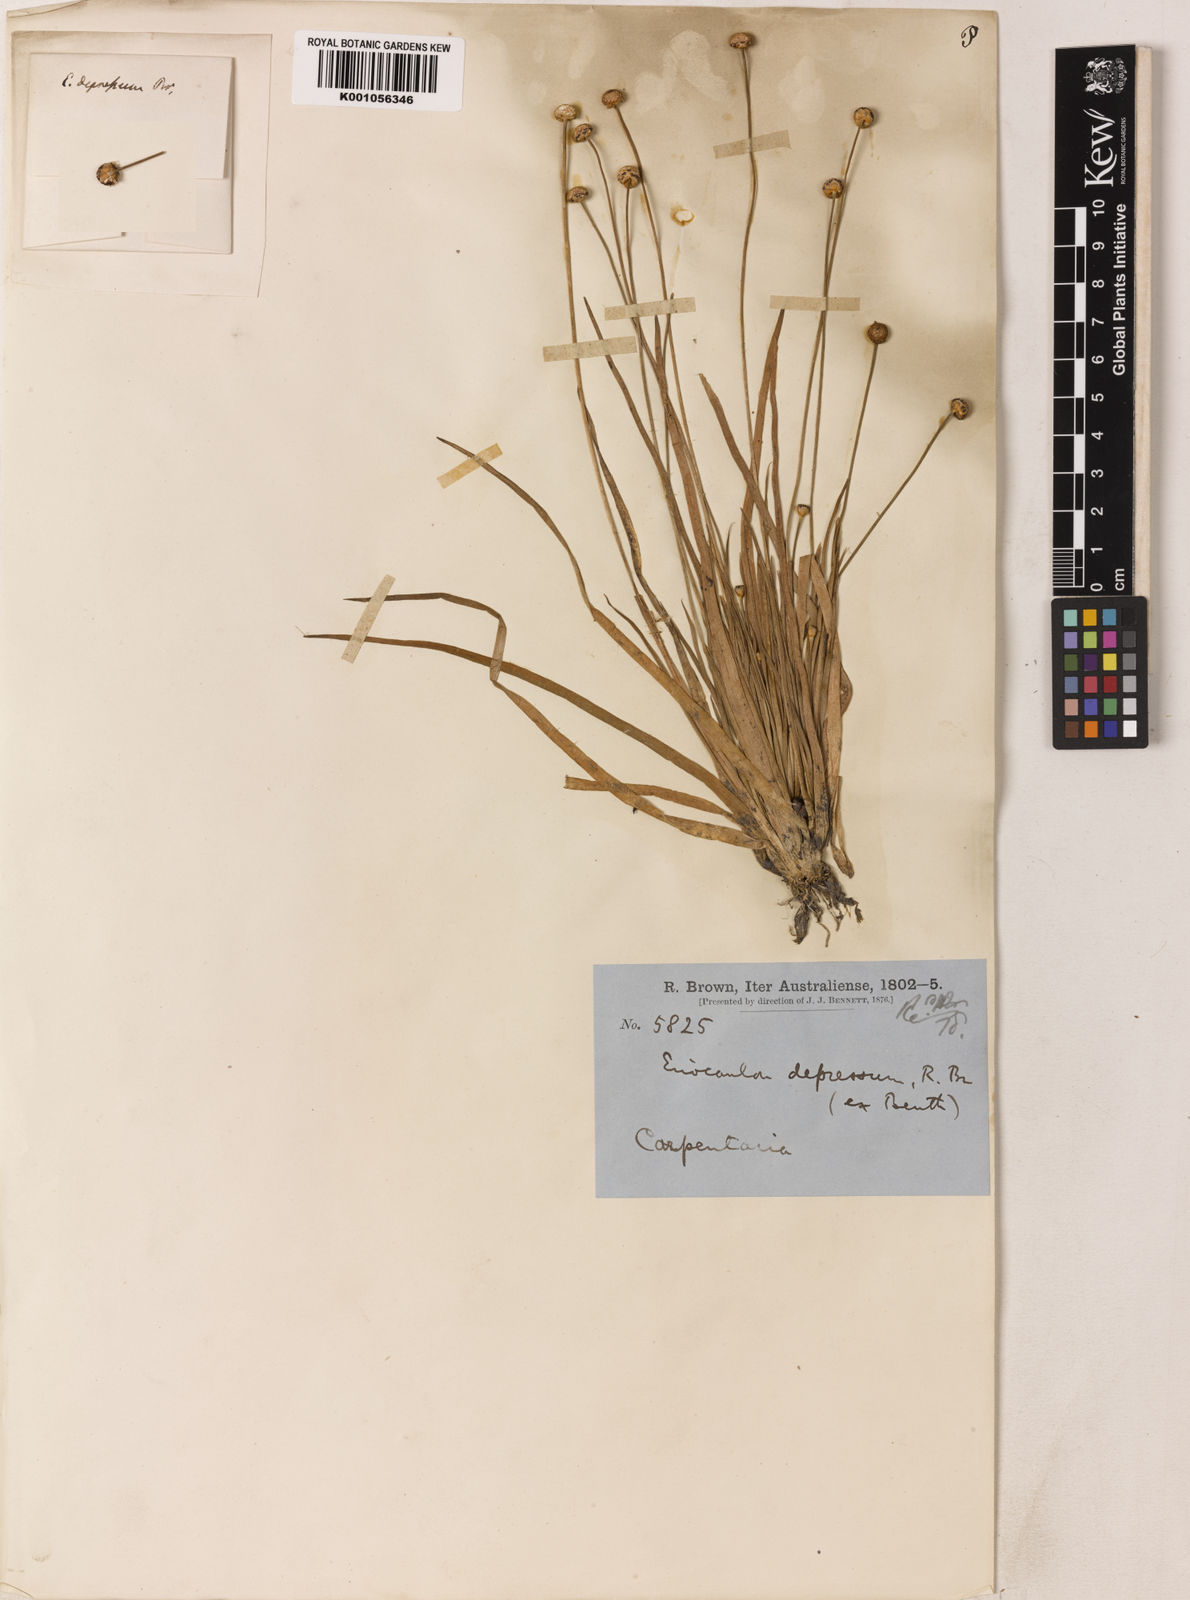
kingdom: Plantae
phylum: Tracheophyta
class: Liliopsida
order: Poales
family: Eriocaulaceae
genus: Eriocaulon
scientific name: Eriocaulon depressum
